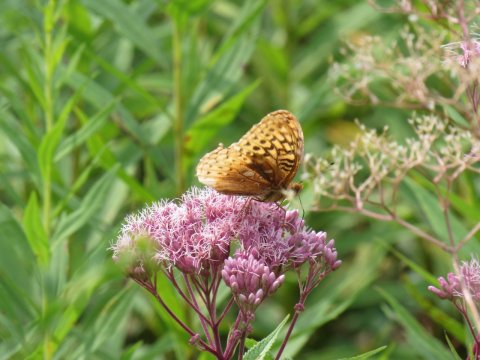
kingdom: Animalia
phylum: Arthropoda
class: Insecta
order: Lepidoptera
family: Nymphalidae
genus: Speyeria
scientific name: Speyeria cybele
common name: Great Spangled Fritillary
